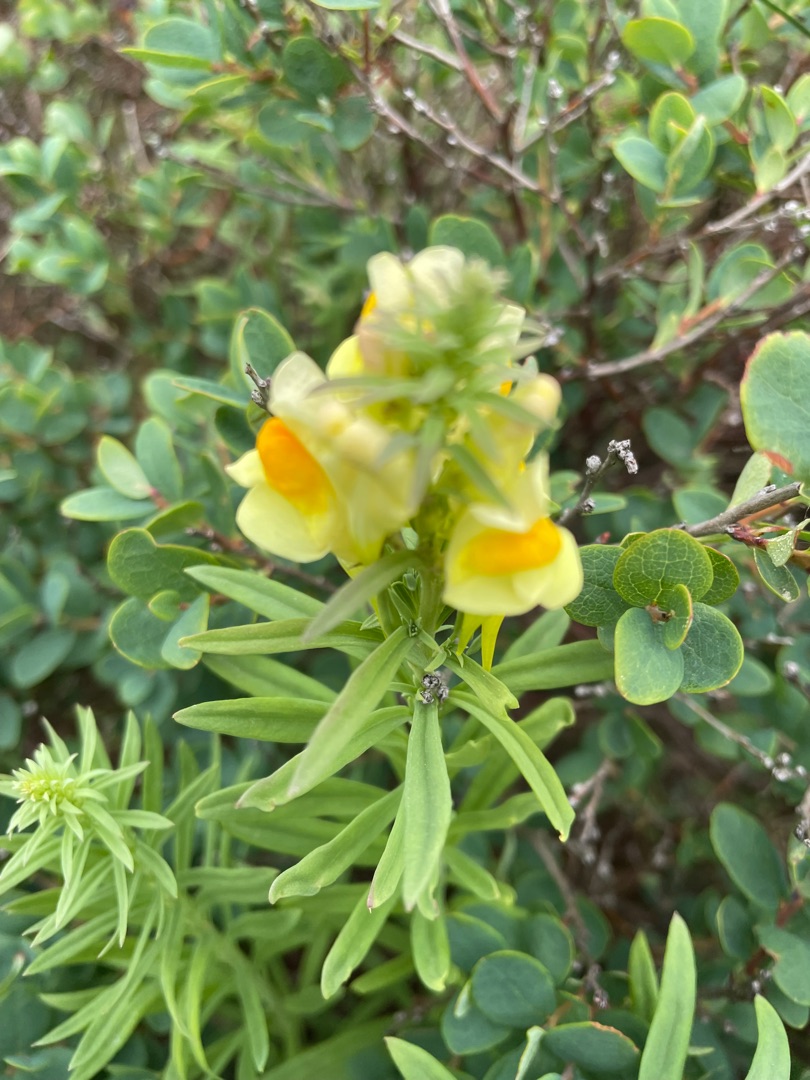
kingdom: Plantae
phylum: Tracheophyta
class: Magnoliopsida
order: Lamiales
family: Plantaginaceae
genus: Linaria
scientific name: Linaria vulgaris
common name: Almindelig torskemund
